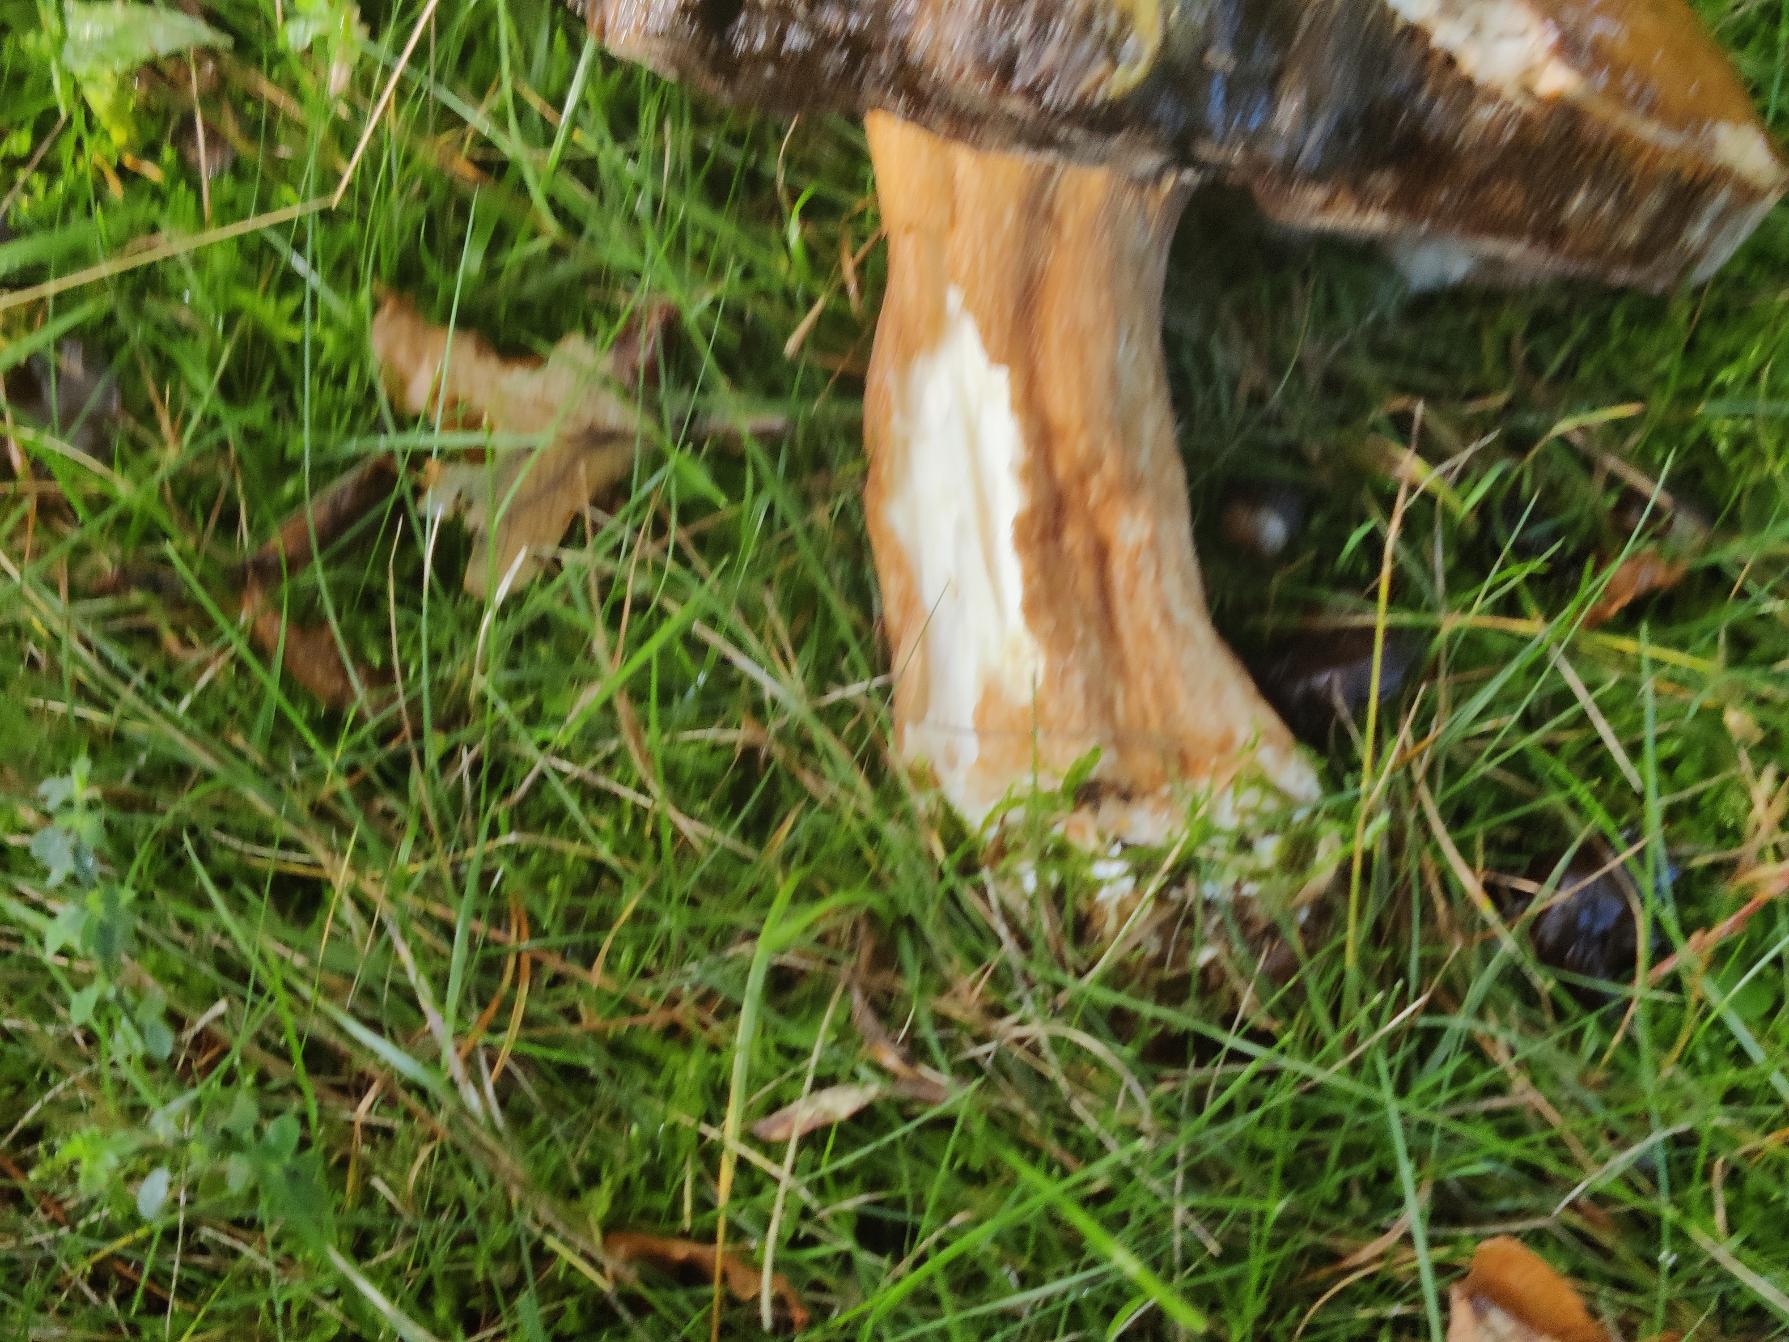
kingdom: Fungi
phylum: Basidiomycota
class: Agaricomycetes
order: Boletales
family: Boletaceae
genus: Boletus
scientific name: Boletus edulis
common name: Spiselig rørhat/karl johan
